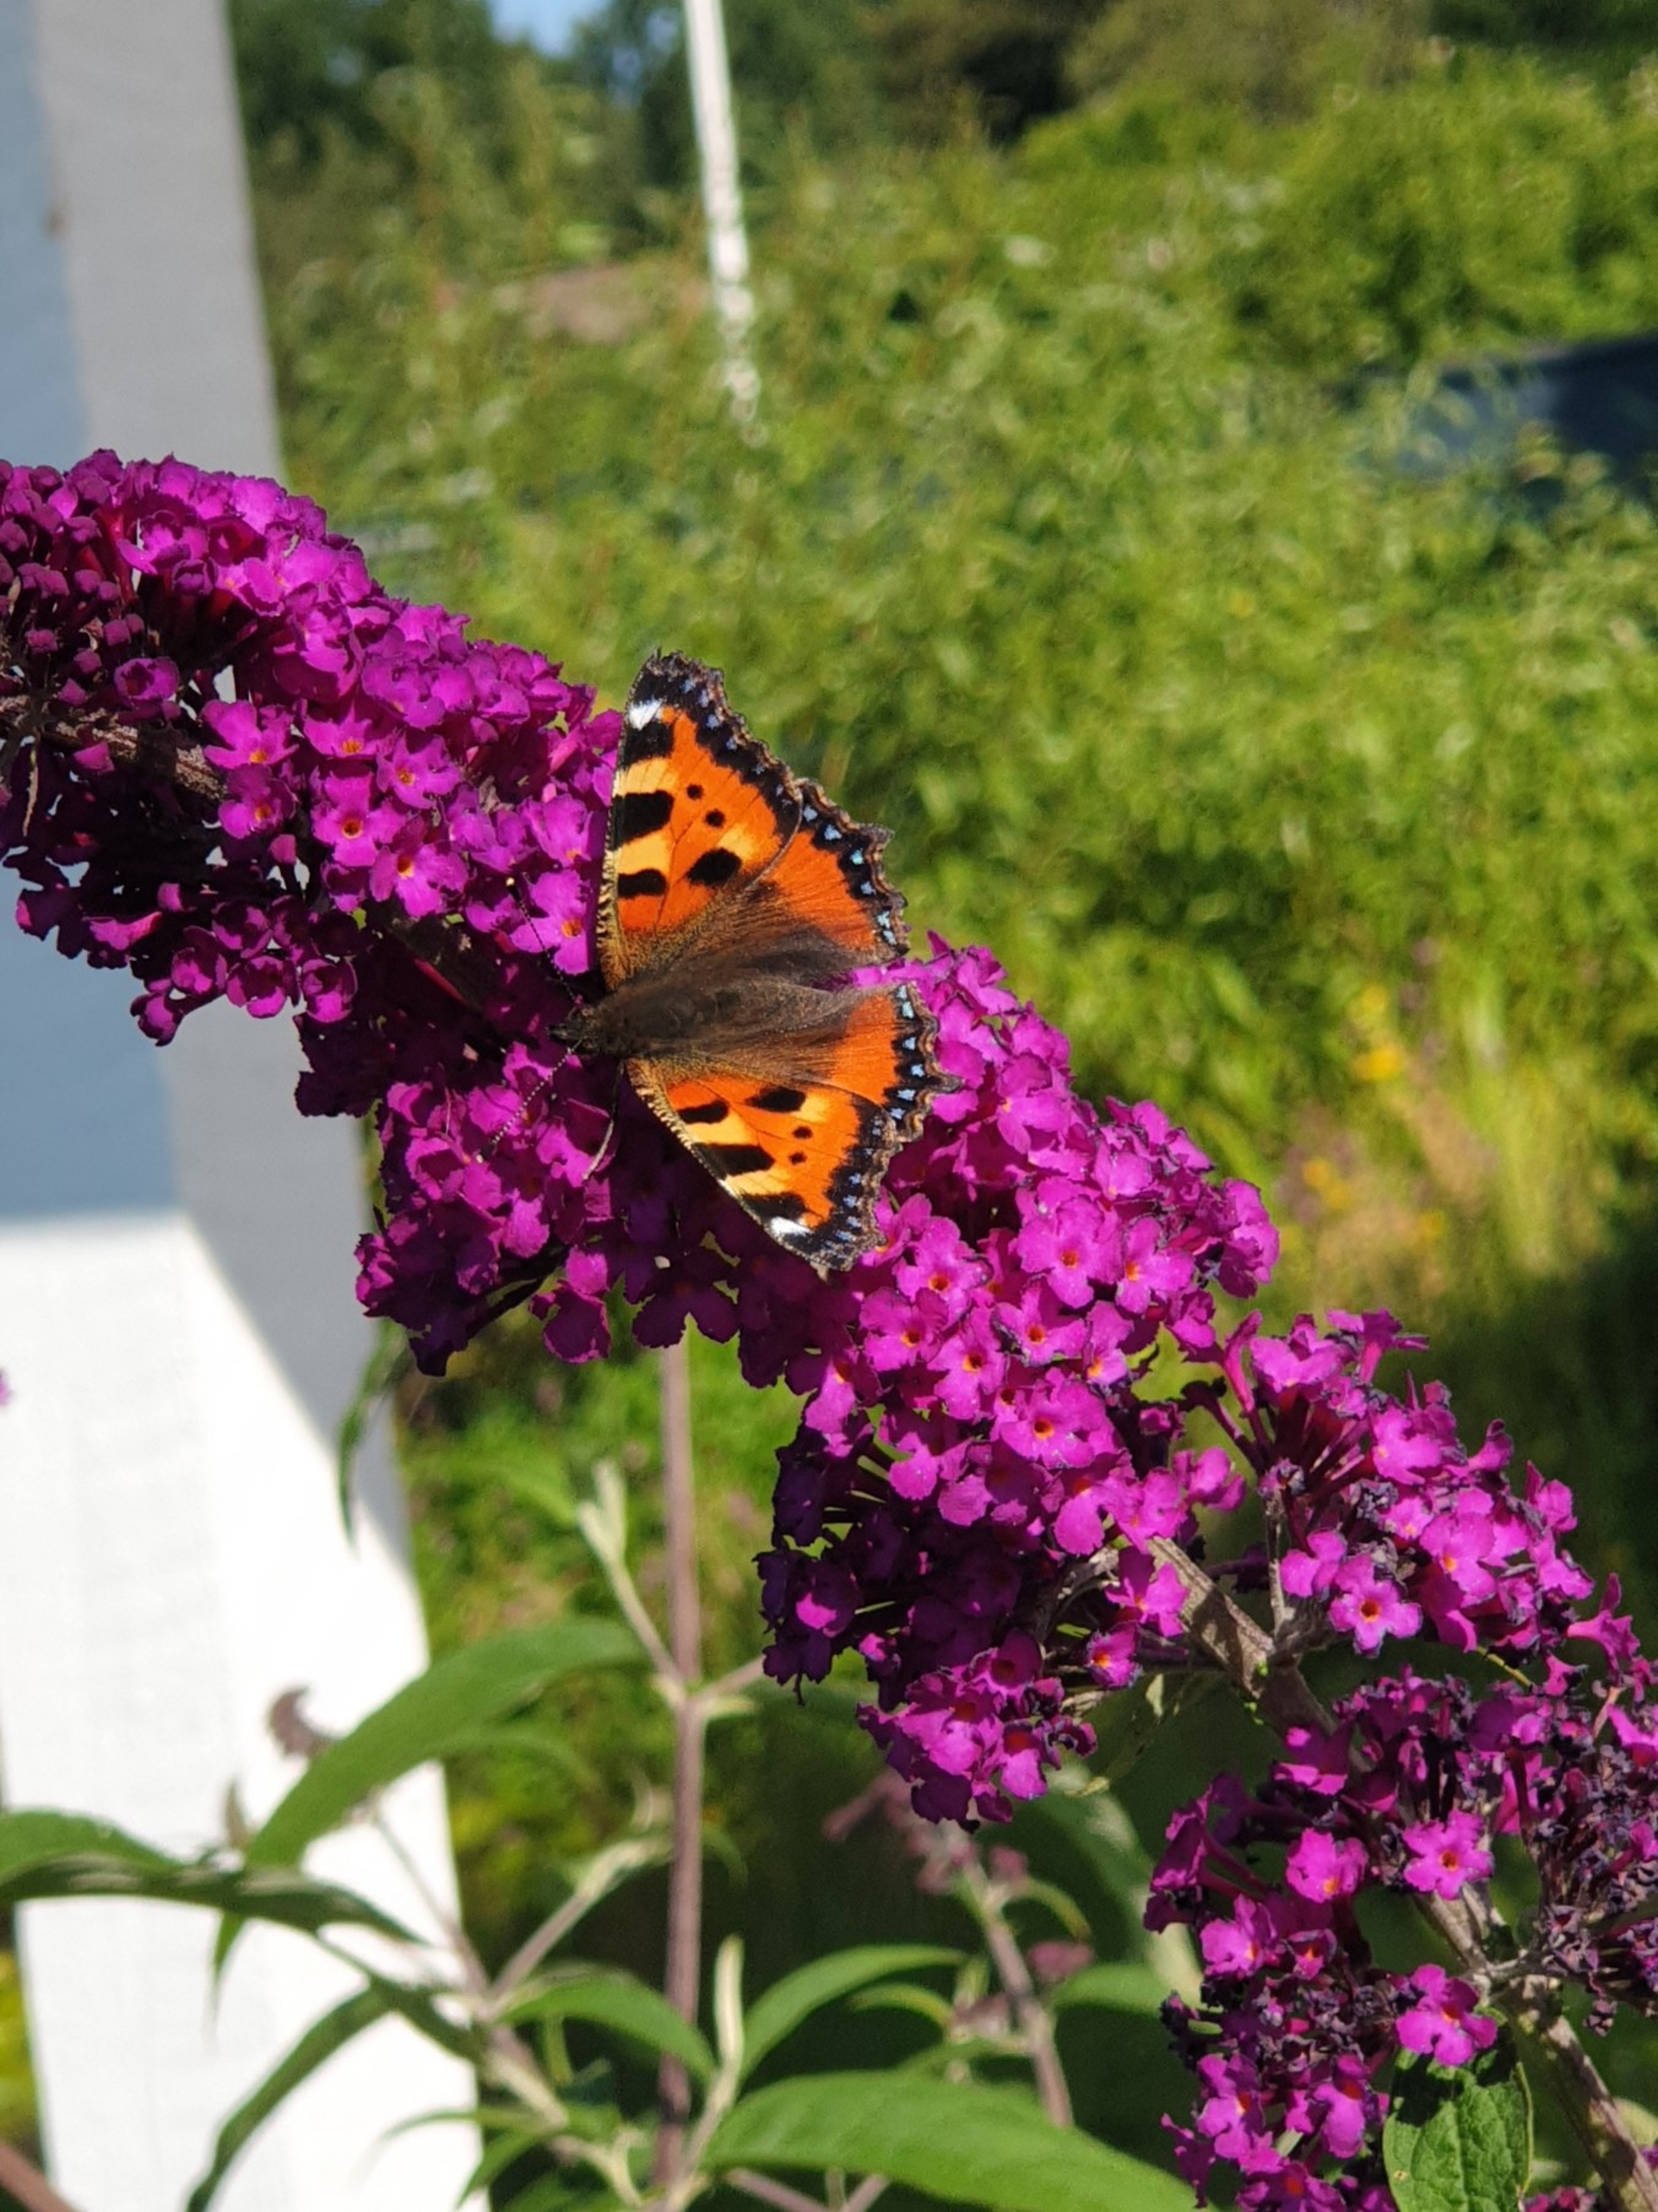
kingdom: Animalia
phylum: Arthropoda
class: Insecta
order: Lepidoptera
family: Nymphalidae
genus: Aglais
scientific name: Aglais urticae
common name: Nældens takvinge
